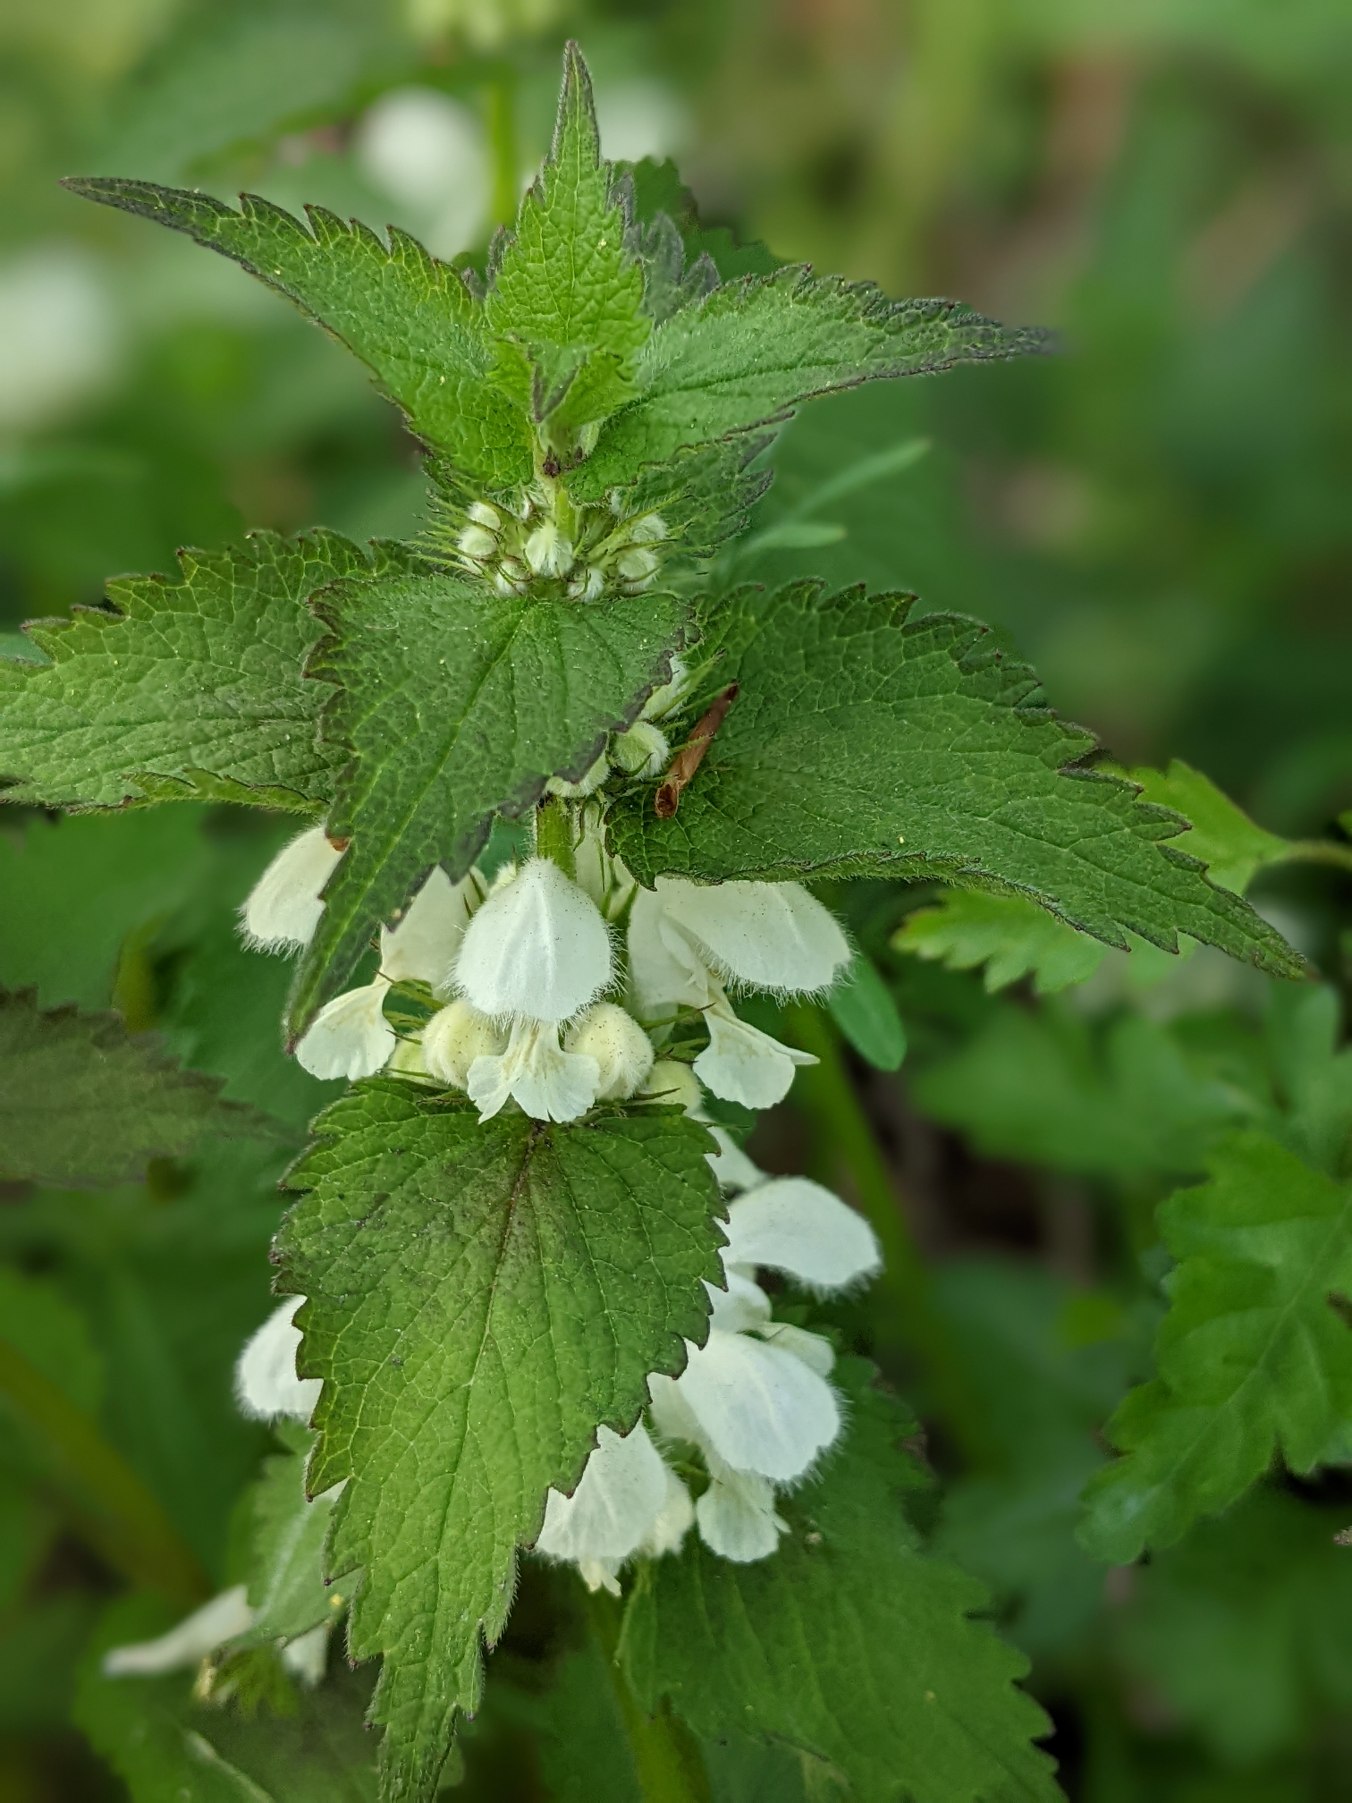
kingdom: Plantae
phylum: Tracheophyta
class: Magnoliopsida
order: Lamiales
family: Lamiaceae
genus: Lamium
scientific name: Lamium album
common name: Døvnælde
